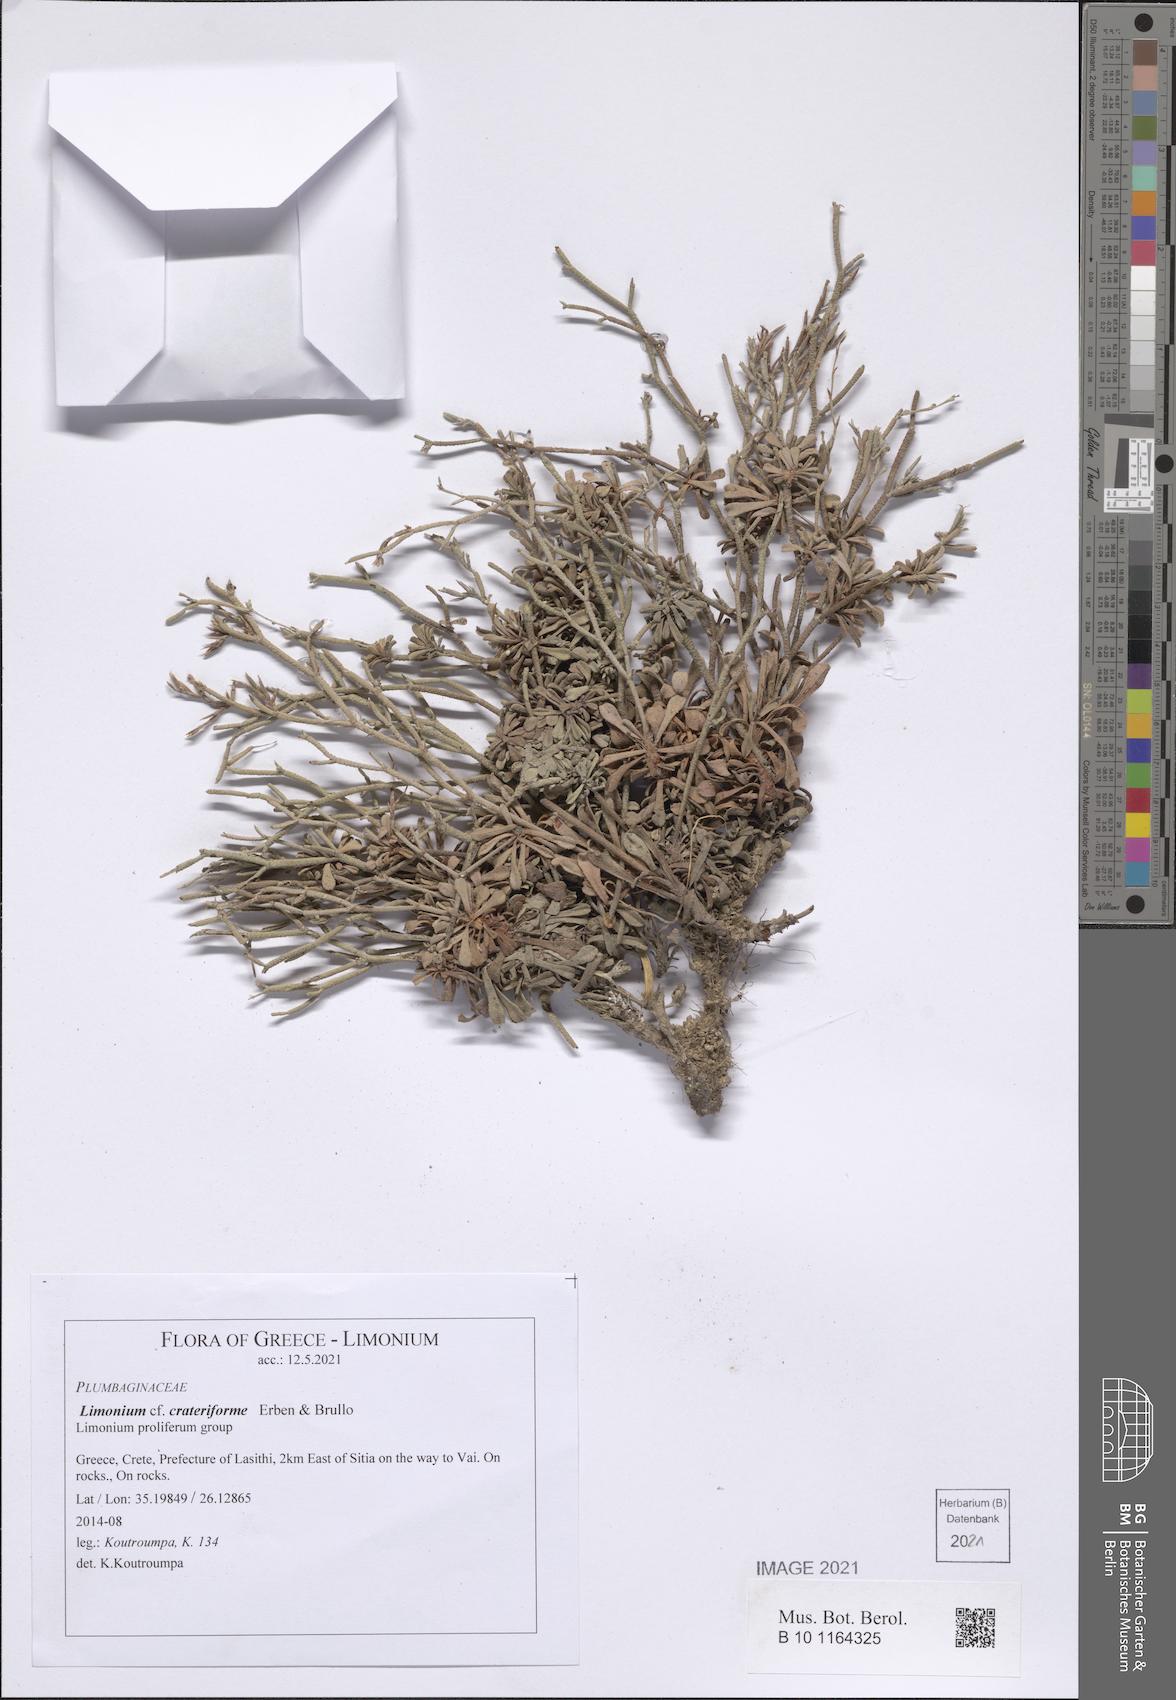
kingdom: Plantae
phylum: Tracheophyta
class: Magnoliopsida
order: Caryophyllales
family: Plumbaginaceae
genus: Limonium
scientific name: Limonium crateriforme
